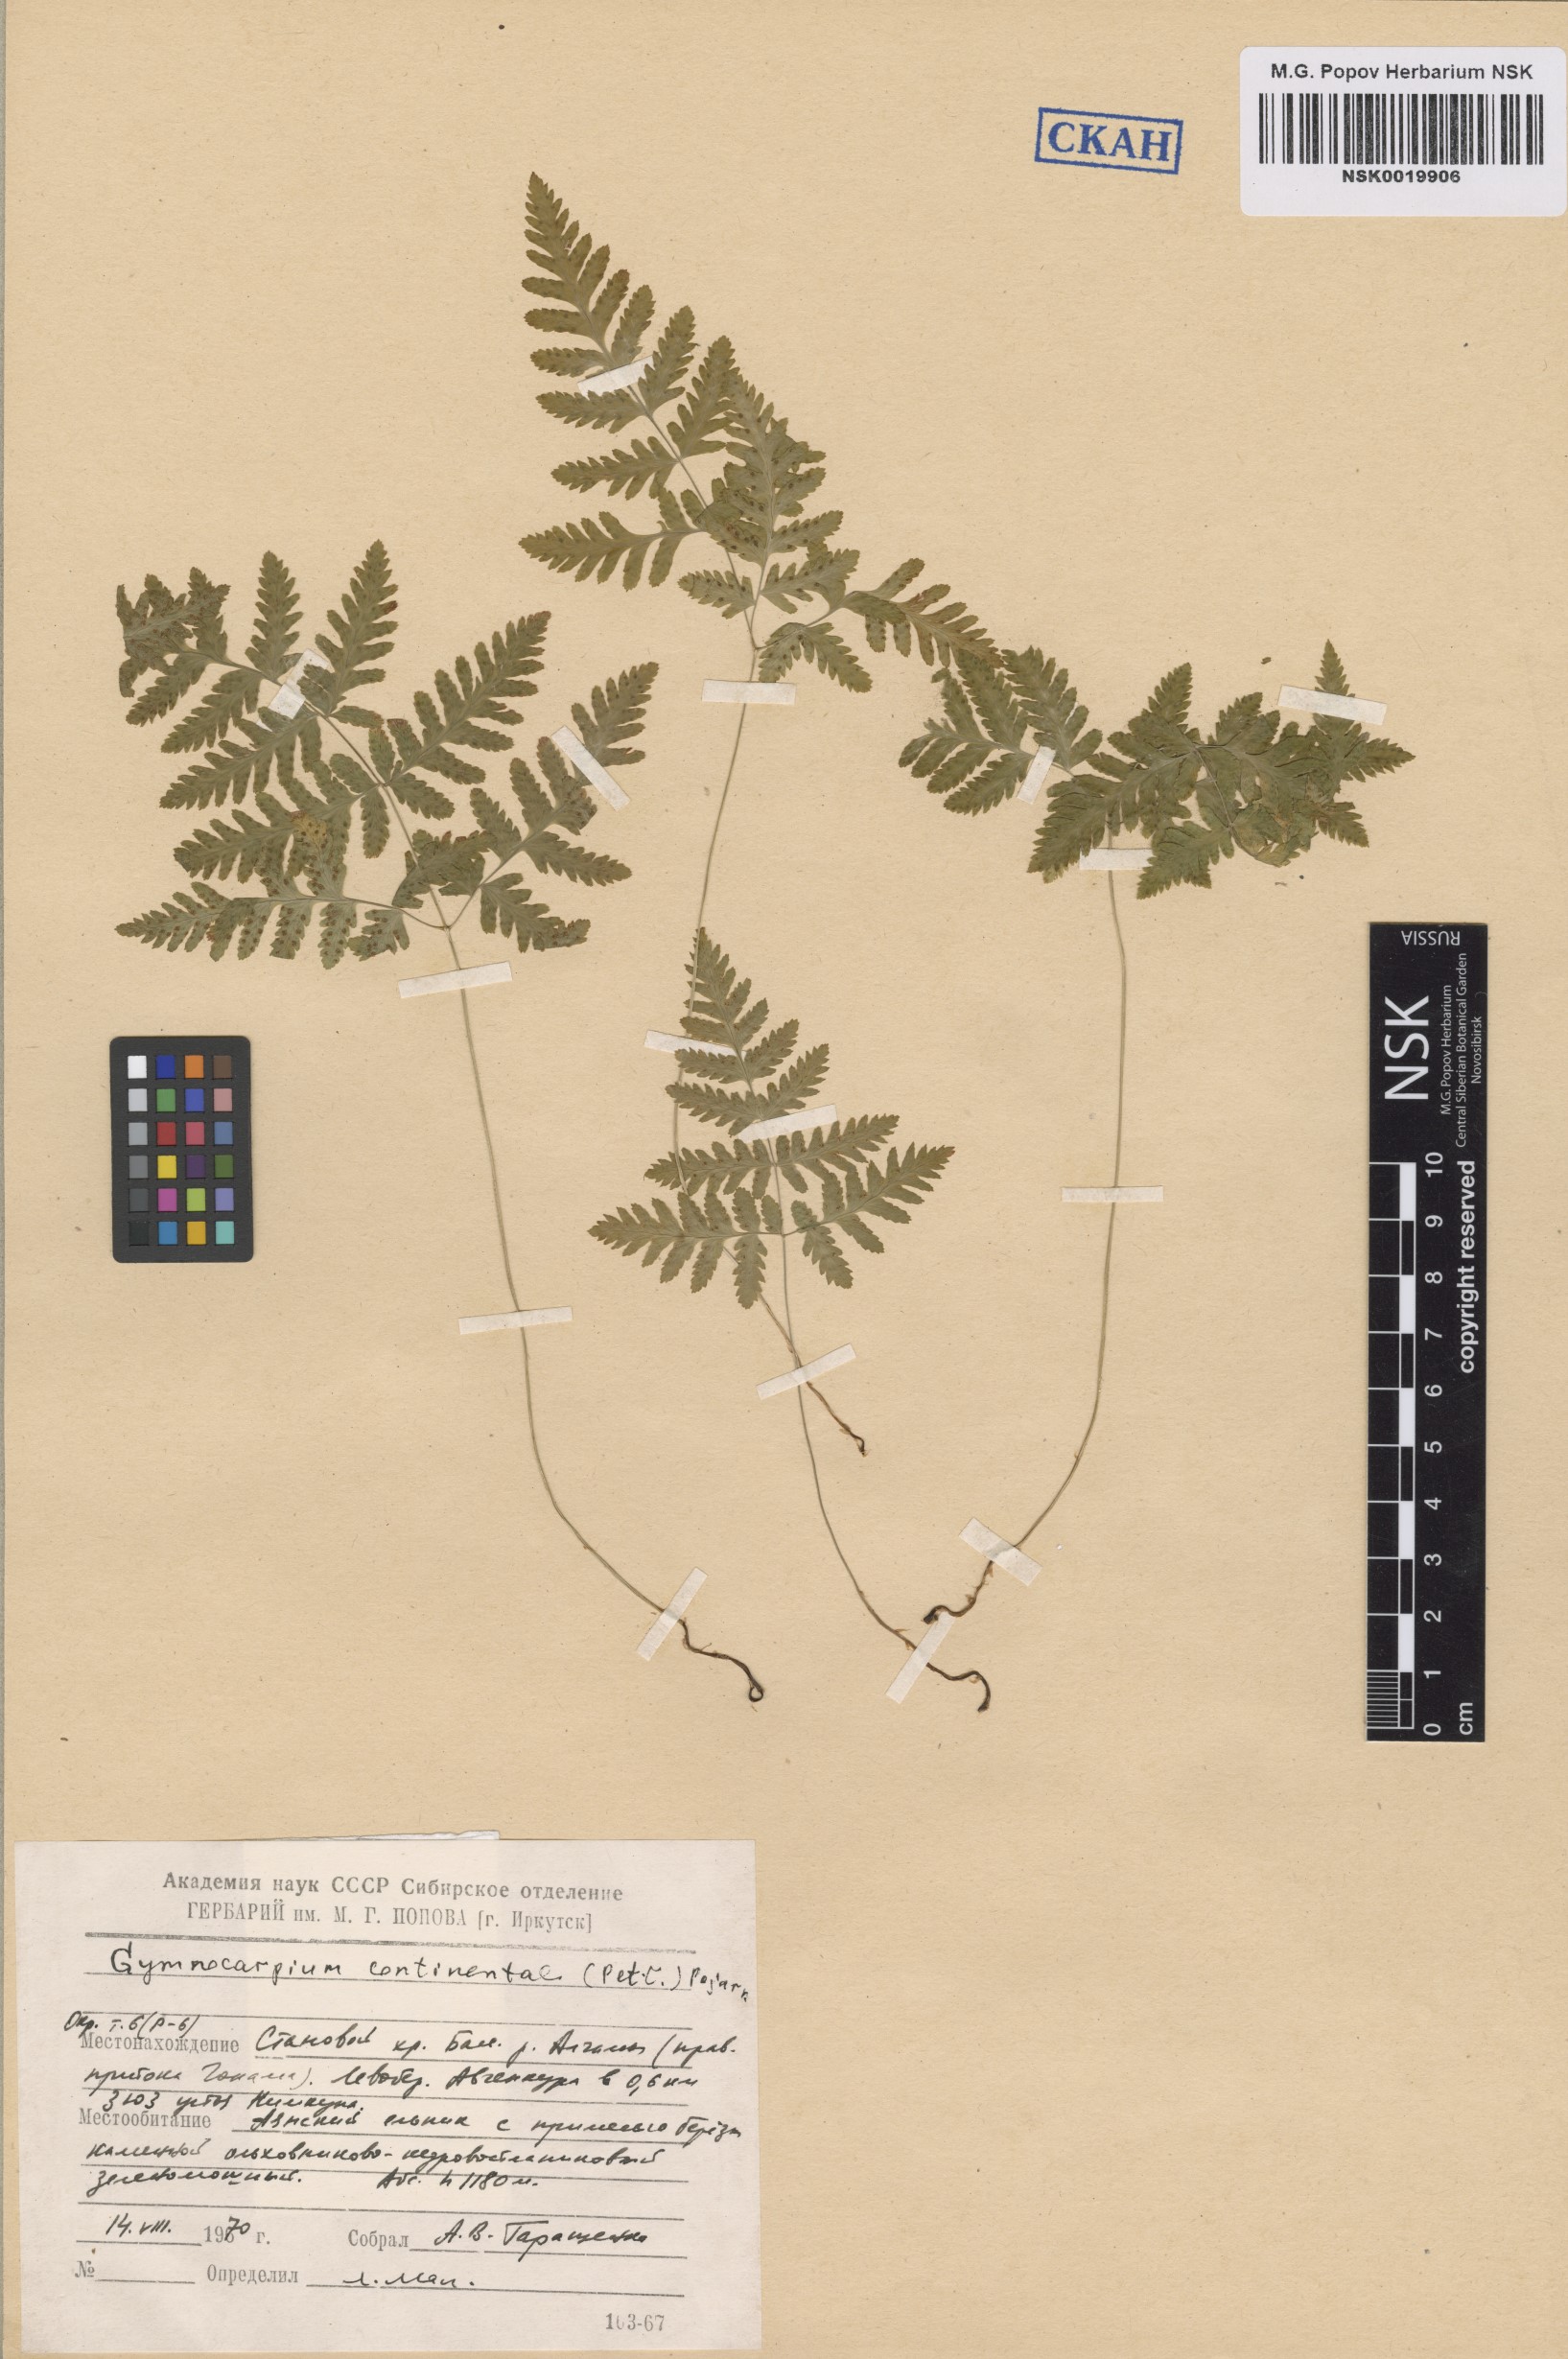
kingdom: Plantae
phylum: Tracheophyta
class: Polypodiopsida
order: Polypodiales
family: Cystopteridaceae
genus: Gymnocarpium
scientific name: Gymnocarpium continentale
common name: Asian oak fern
